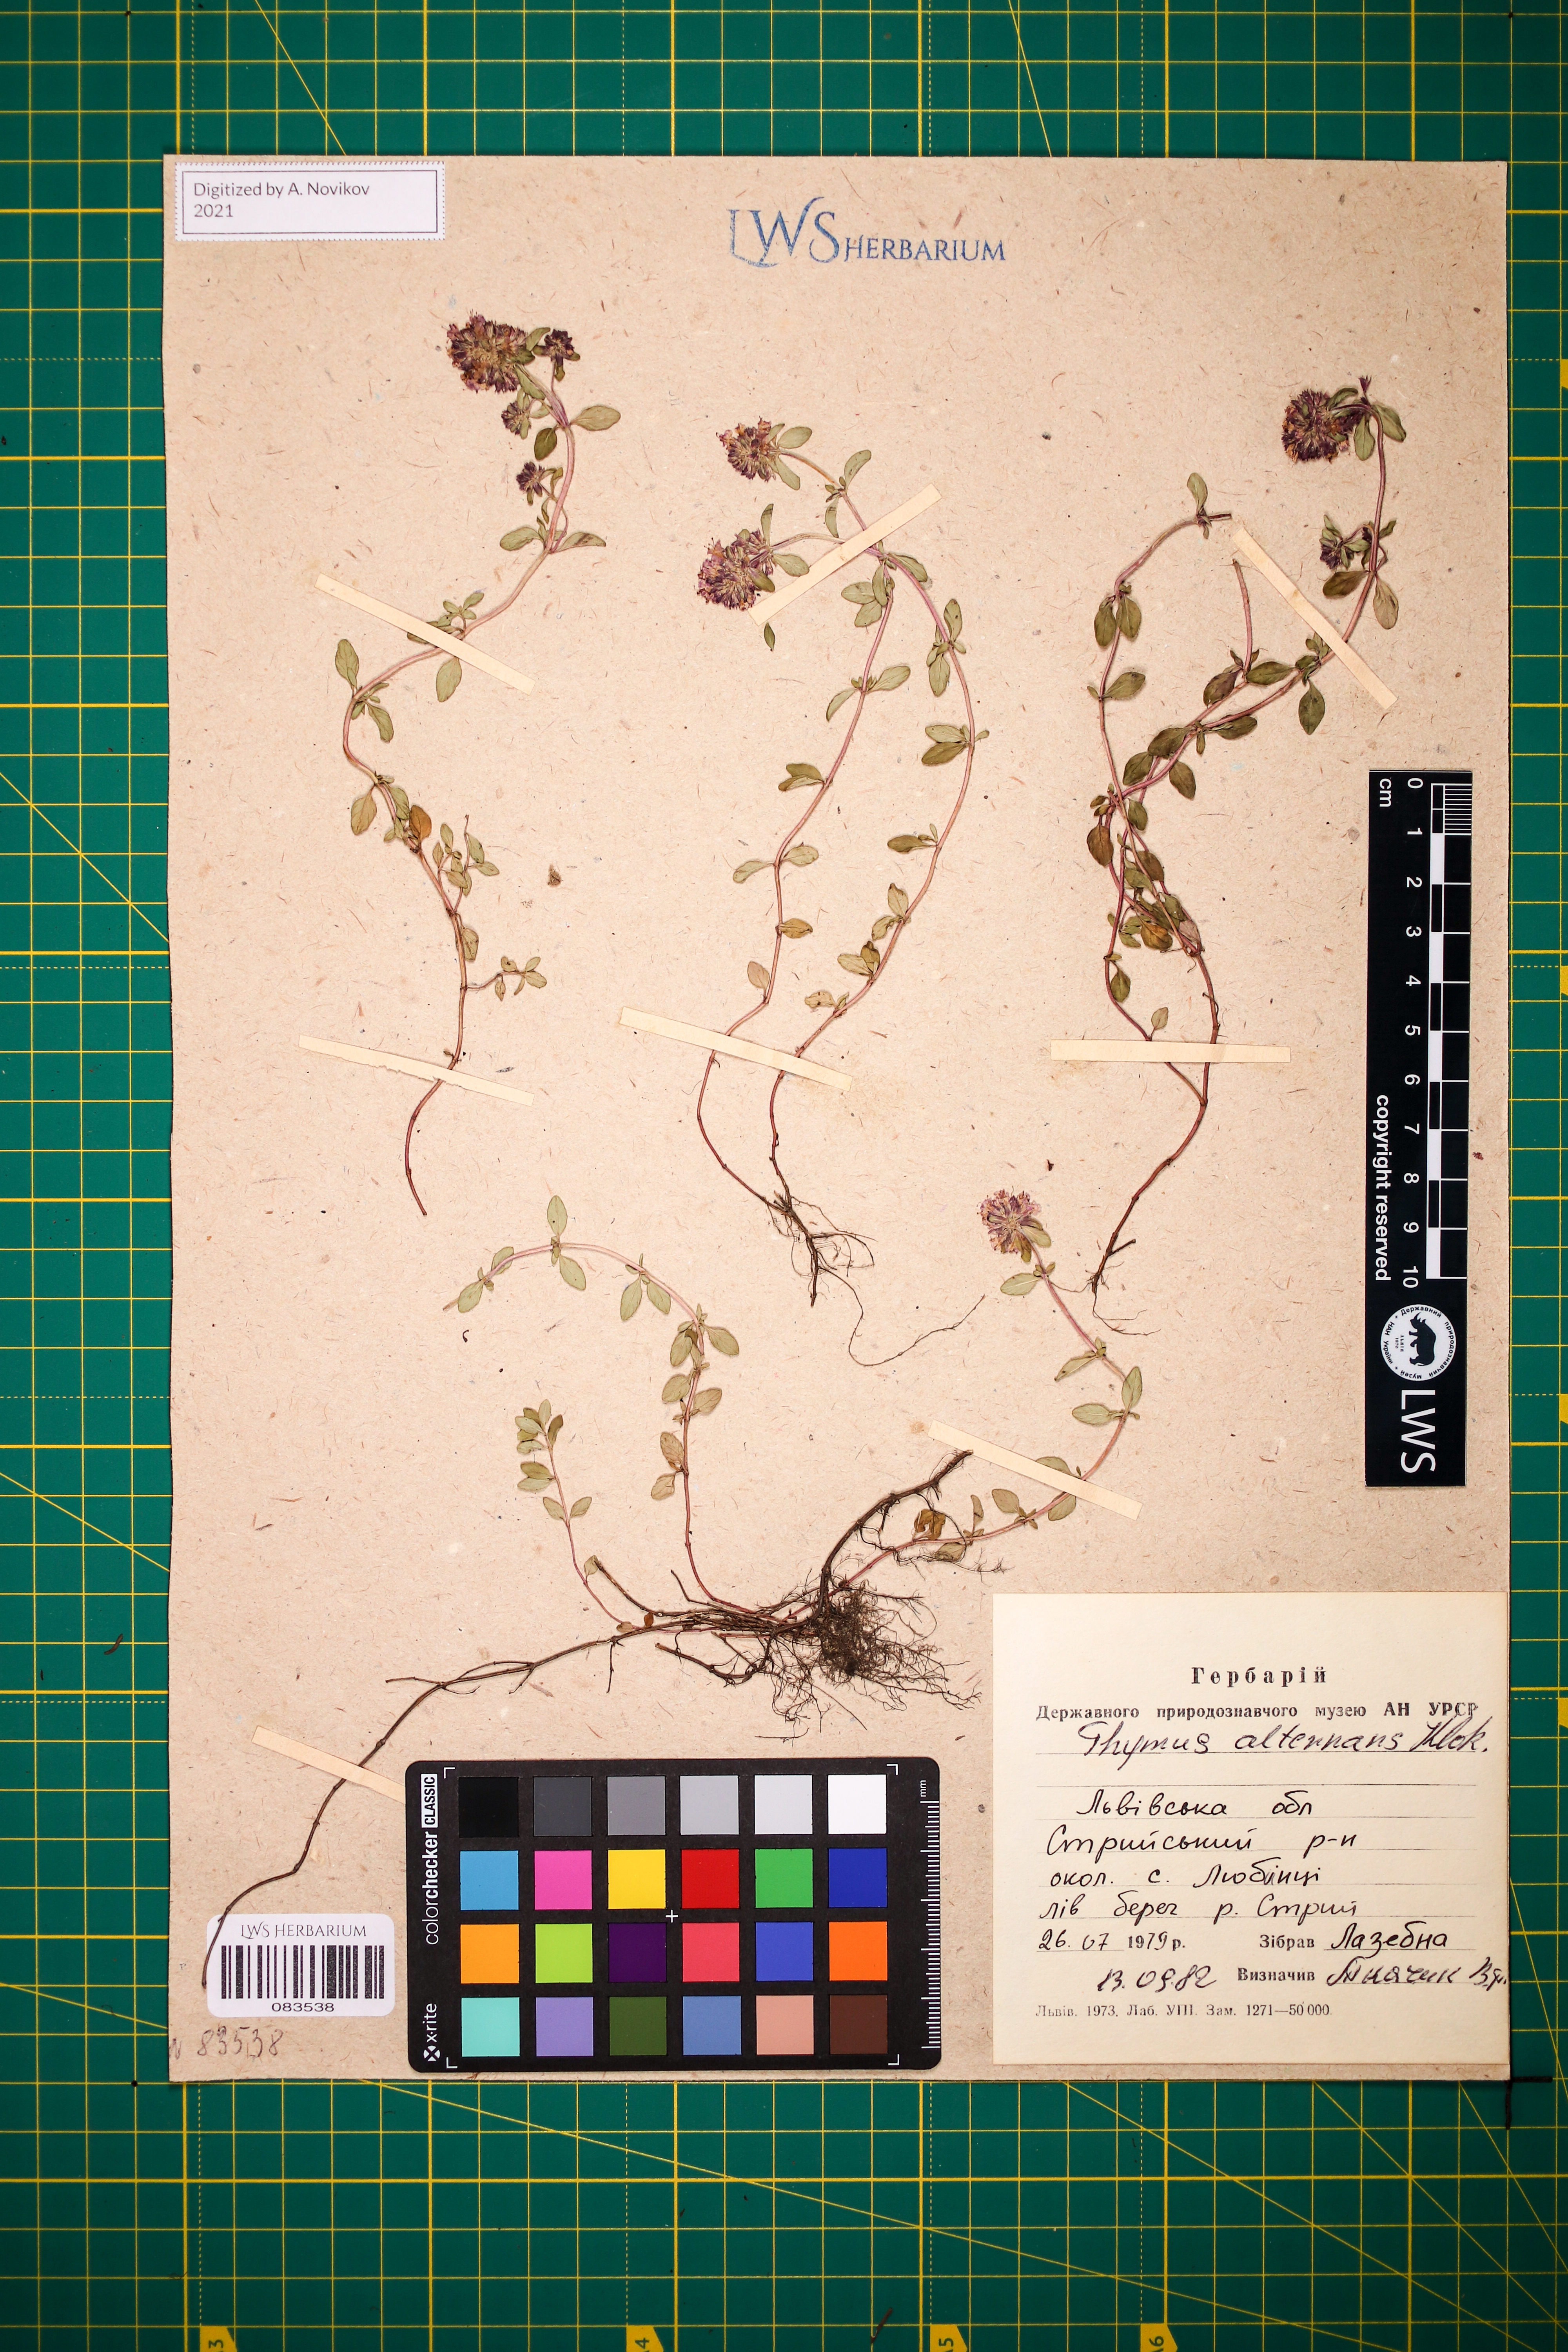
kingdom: Plantae
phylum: Tracheophyta
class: Magnoliopsida
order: Lamiales
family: Lamiaceae
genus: Thymus
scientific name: Thymus alternans
